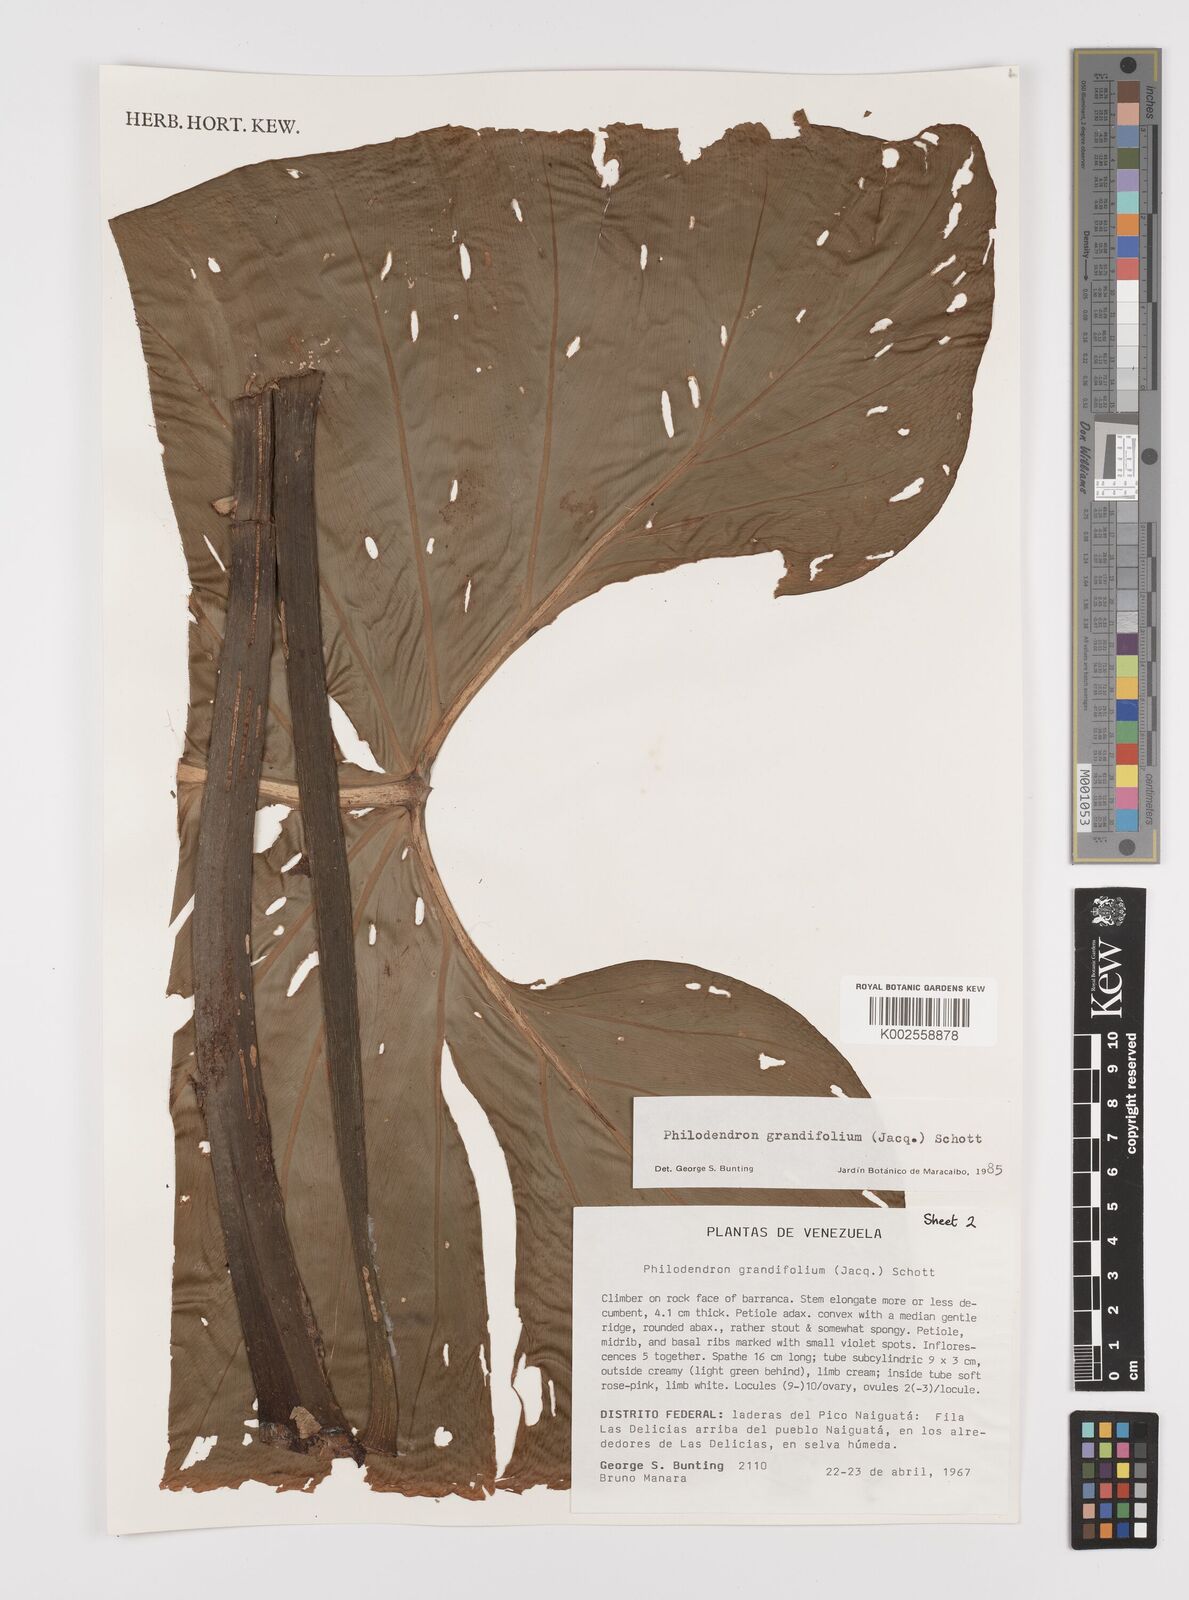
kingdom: Plantae
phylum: Tracheophyta
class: Liliopsida
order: Alismatales
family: Araceae
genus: Philodendron
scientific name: Philodendron grandifolium
